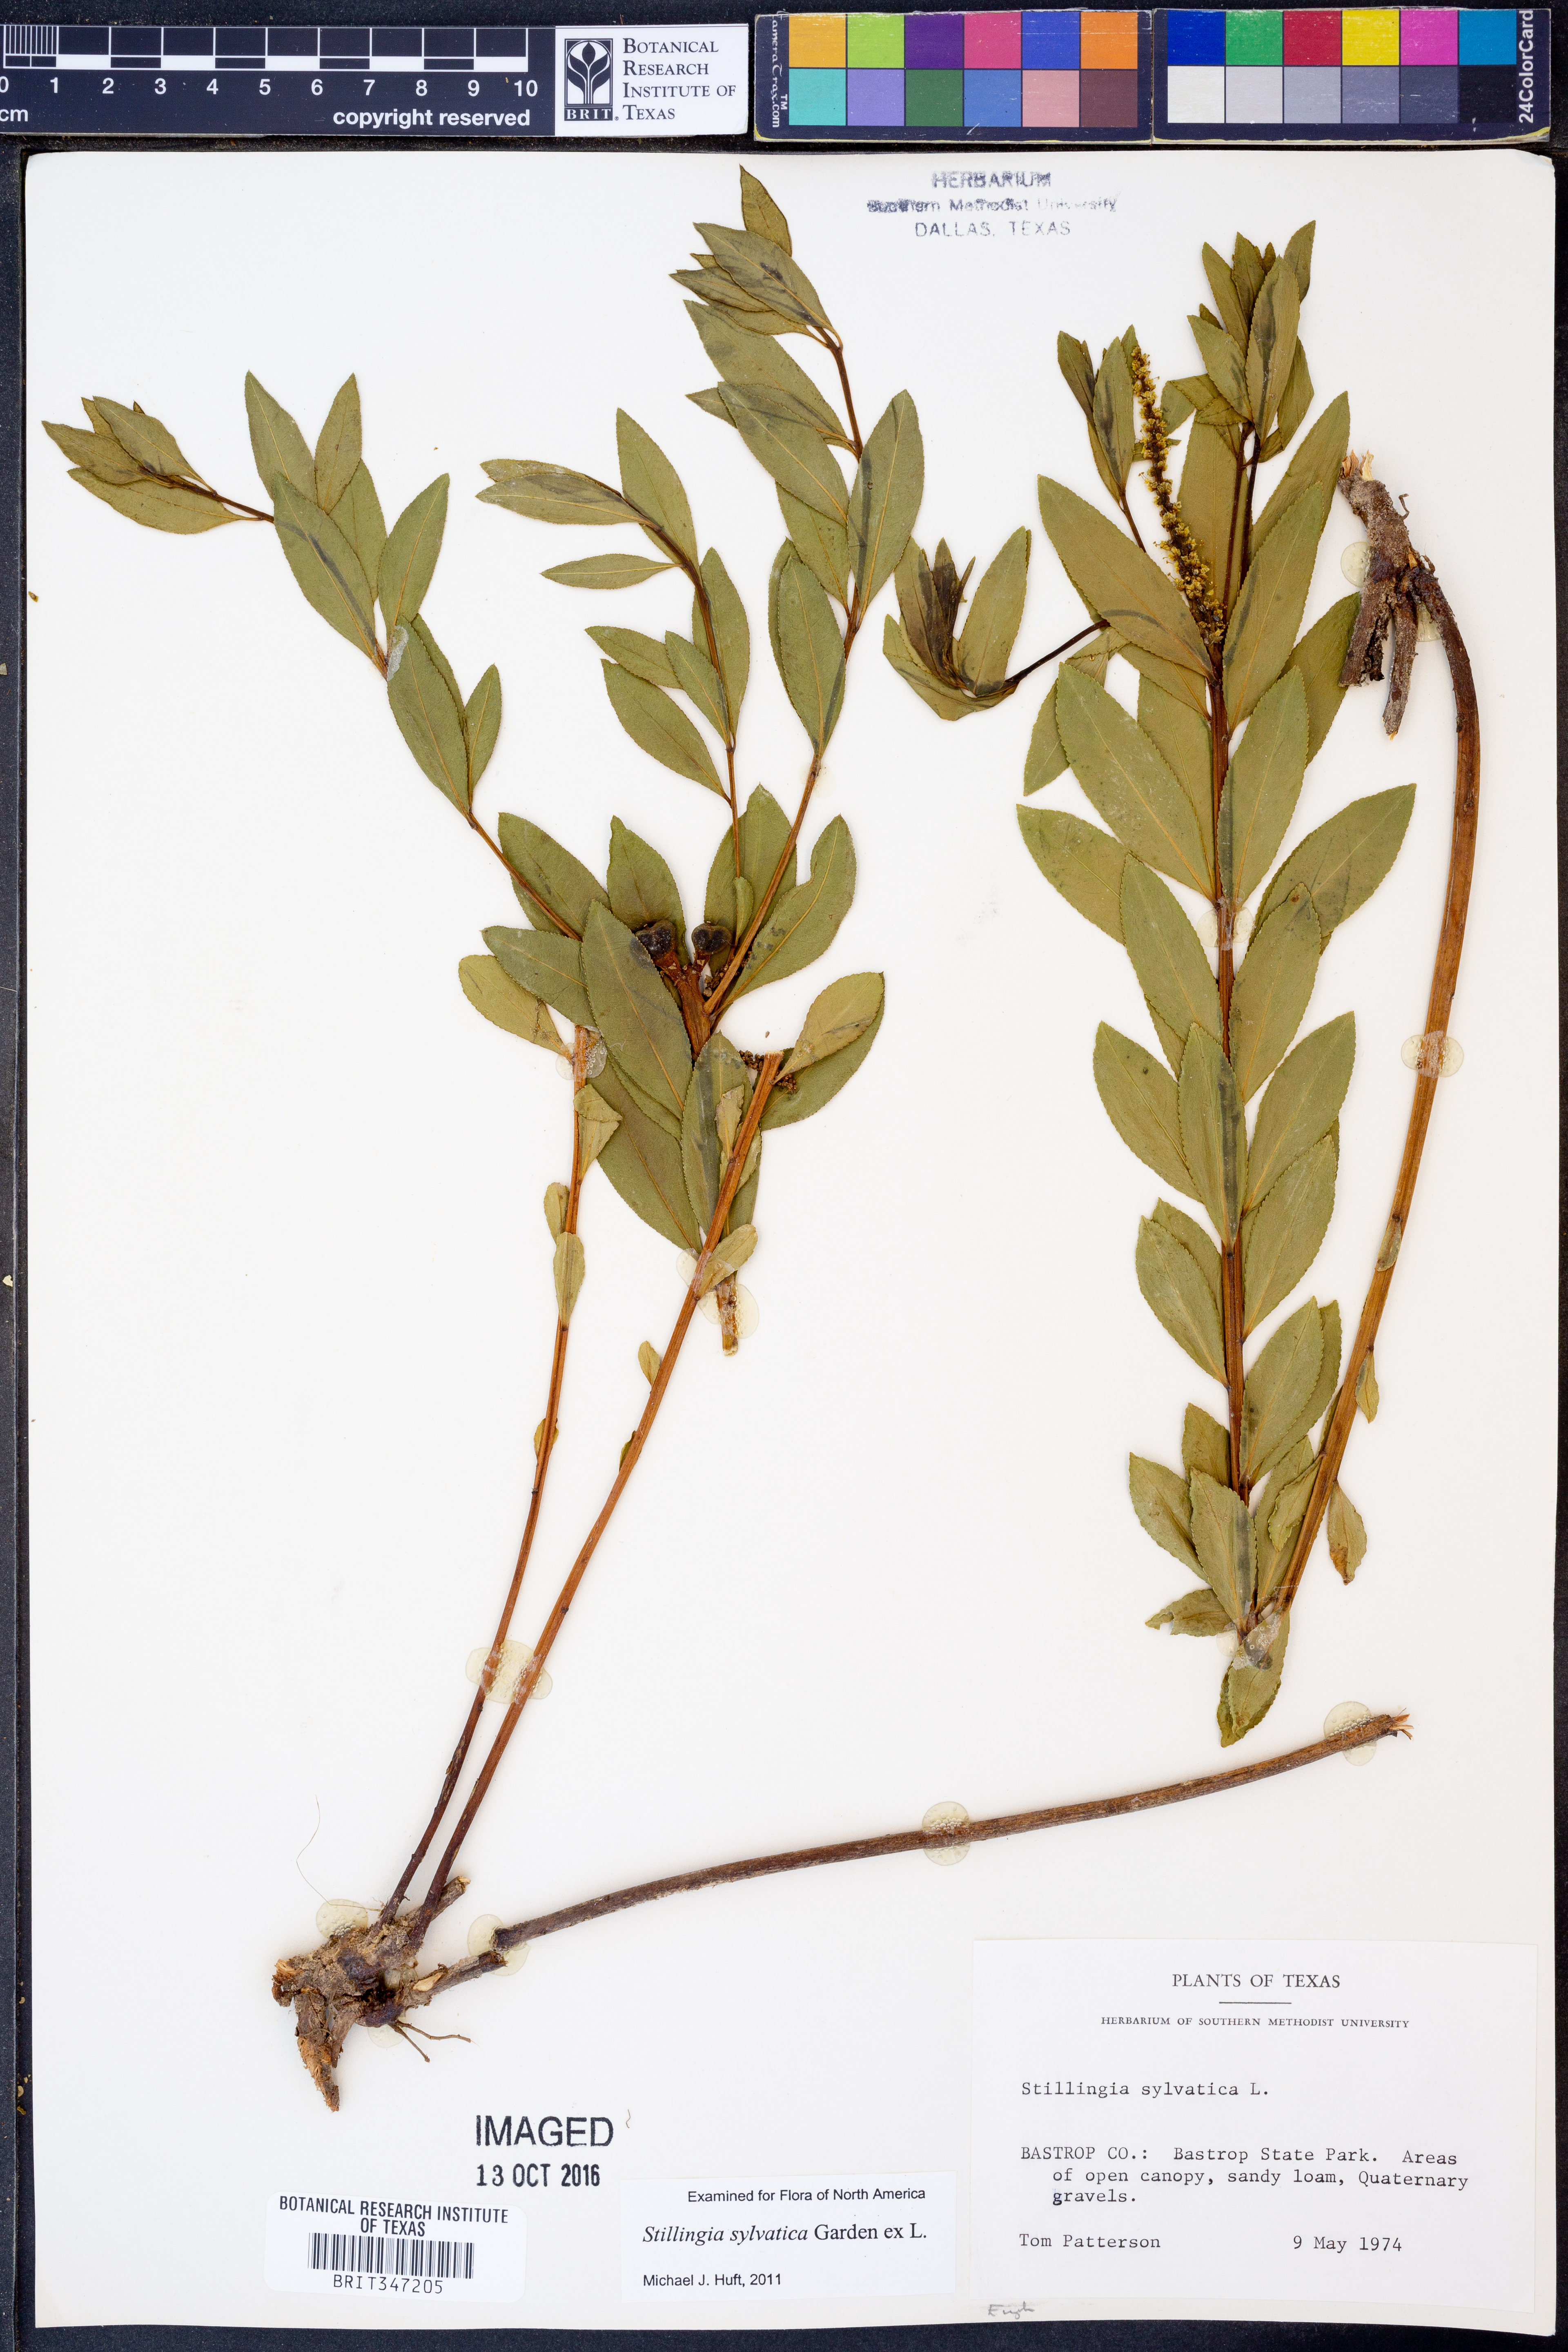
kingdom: Plantae
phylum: Tracheophyta
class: Magnoliopsida
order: Malpighiales
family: Euphorbiaceae
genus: Stillingia
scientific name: Stillingia sylvatica
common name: Queen's-delight
